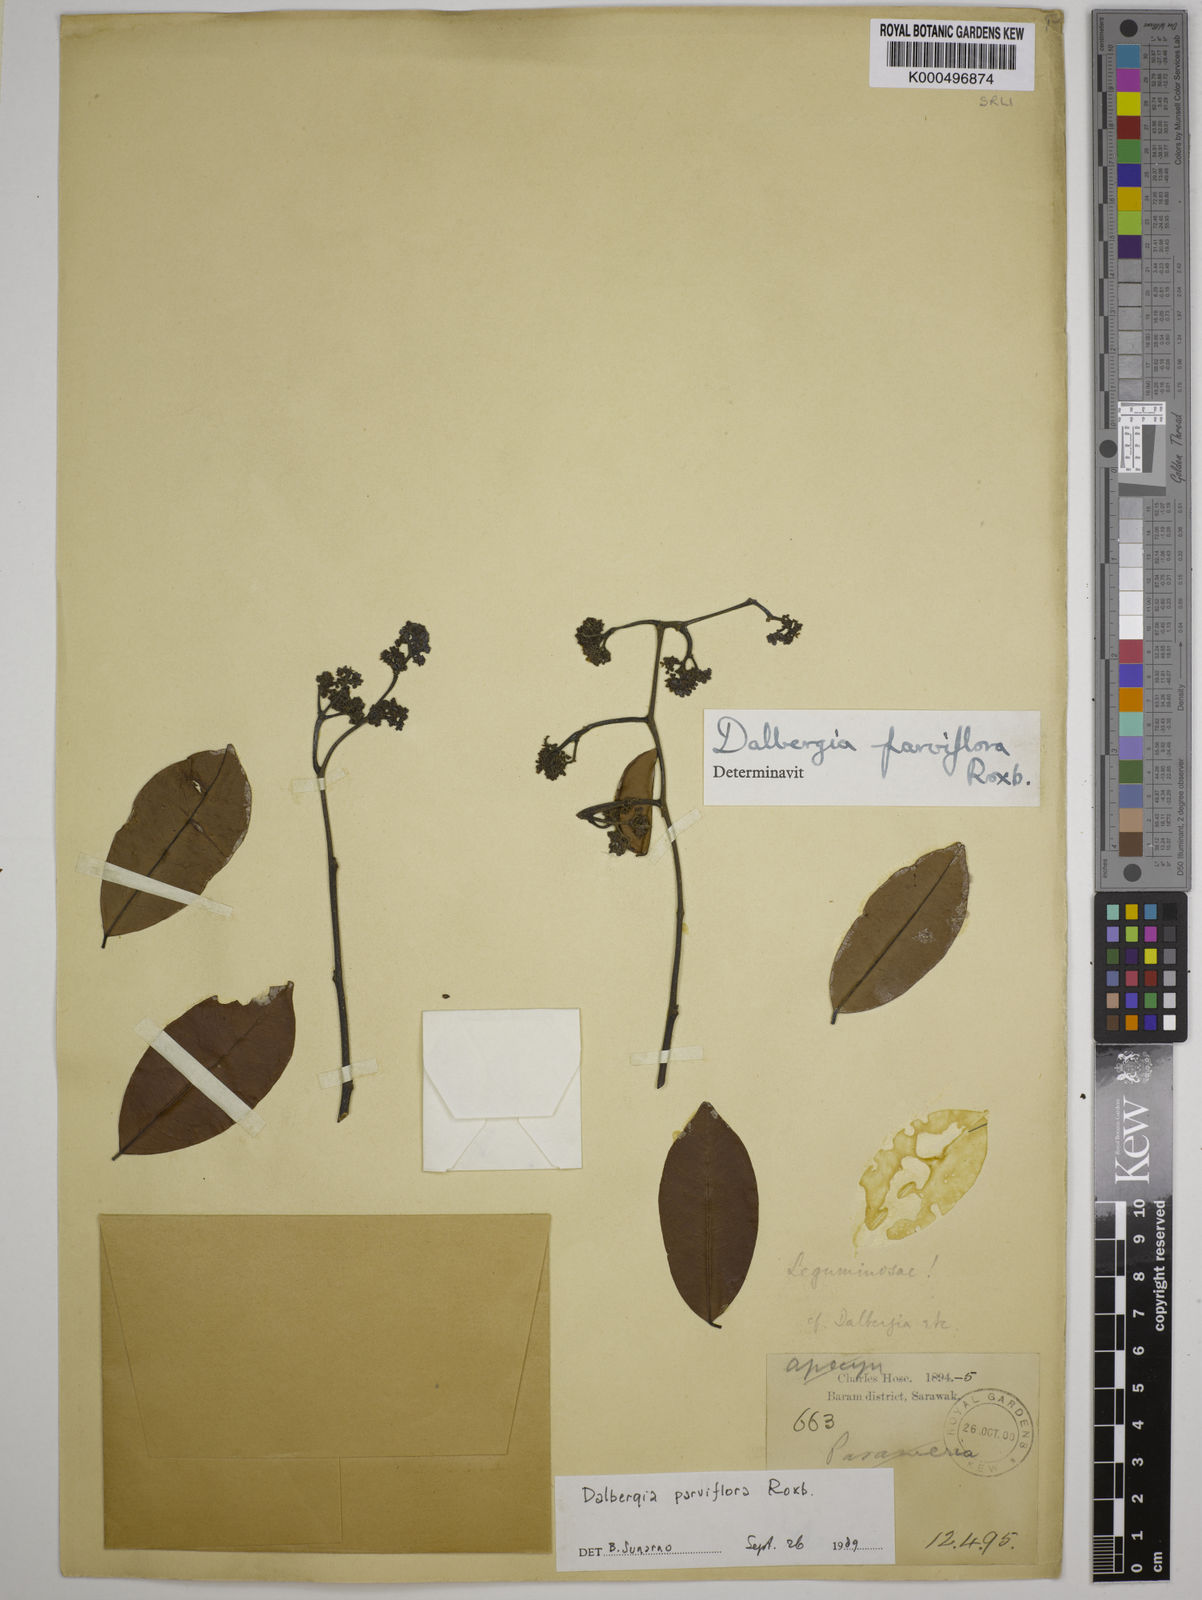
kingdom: Plantae
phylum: Tracheophyta
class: Magnoliopsida
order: Fabales
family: Fabaceae
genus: Dalbergia
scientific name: Dalbergia parviflora
